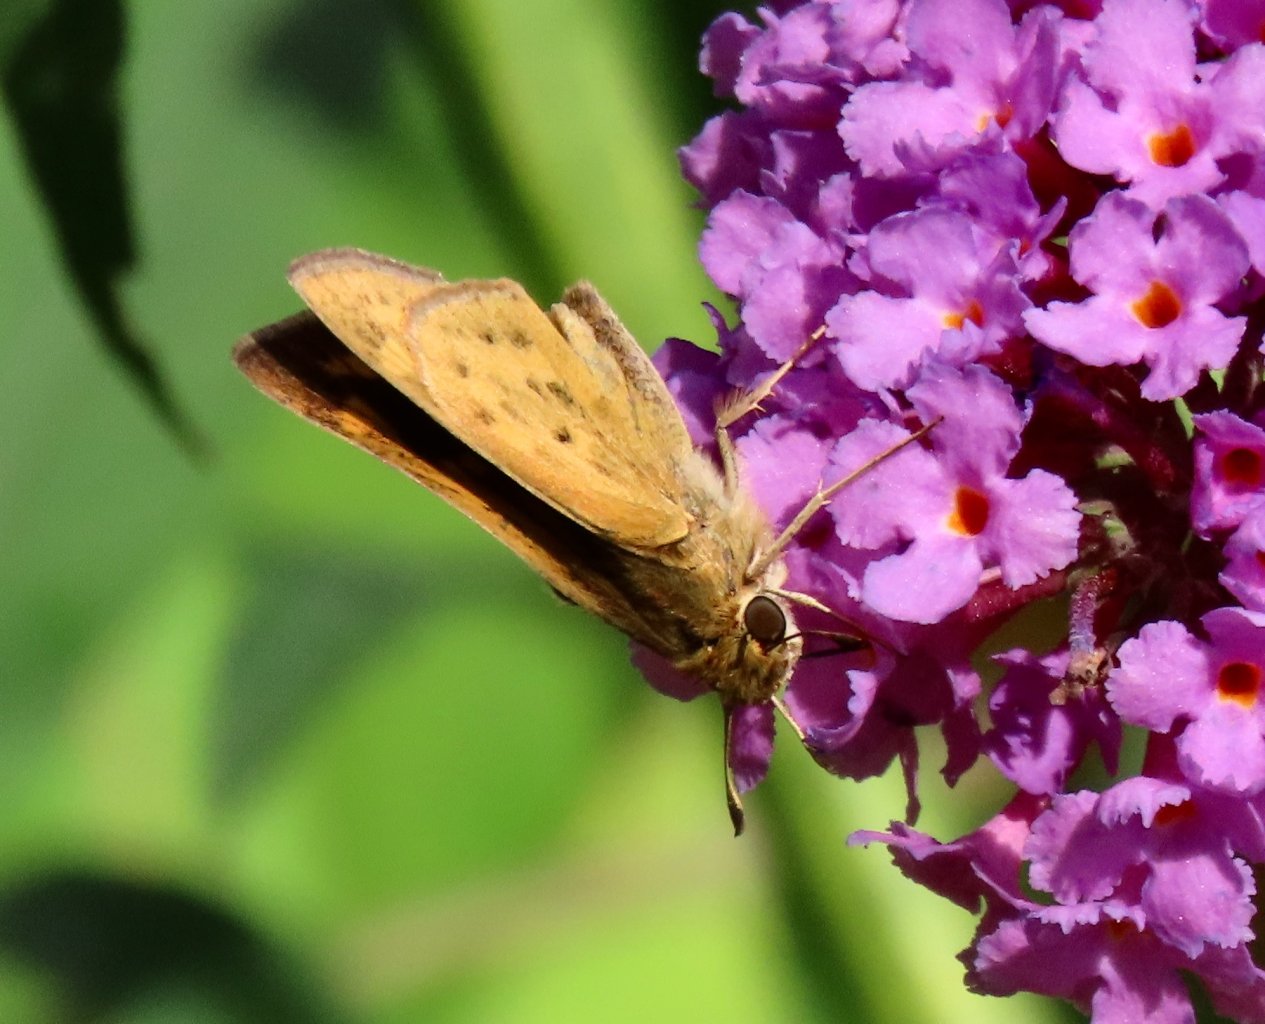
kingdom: Animalia
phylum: Arthropoda
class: Insecta
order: Lepidoptera
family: Hesperiidae
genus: Hylephila
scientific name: Hylephila phyleus
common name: Fiery Skipper
